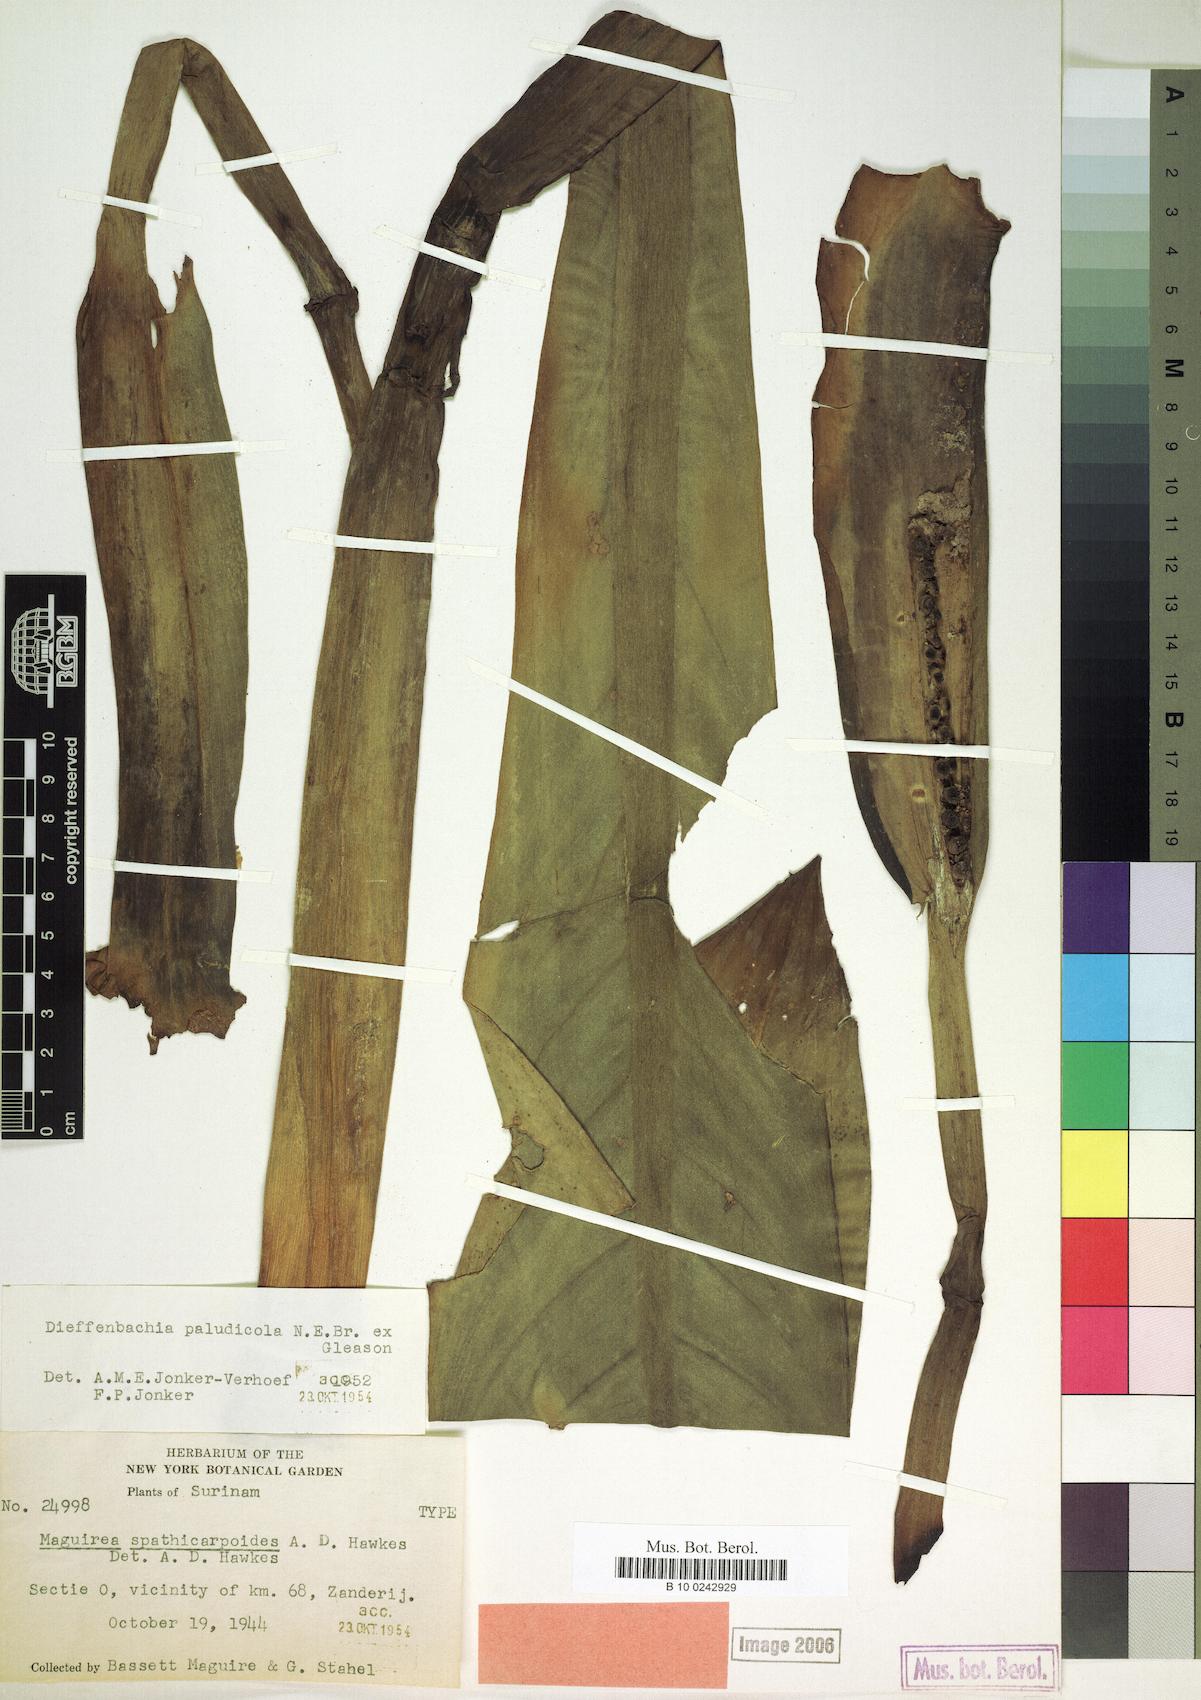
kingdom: Plantae
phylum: Tracheophyta
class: Liliopsida
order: Alismatales
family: Araceae
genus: Dieffenbachia
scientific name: Dieffenbachia paludicola
